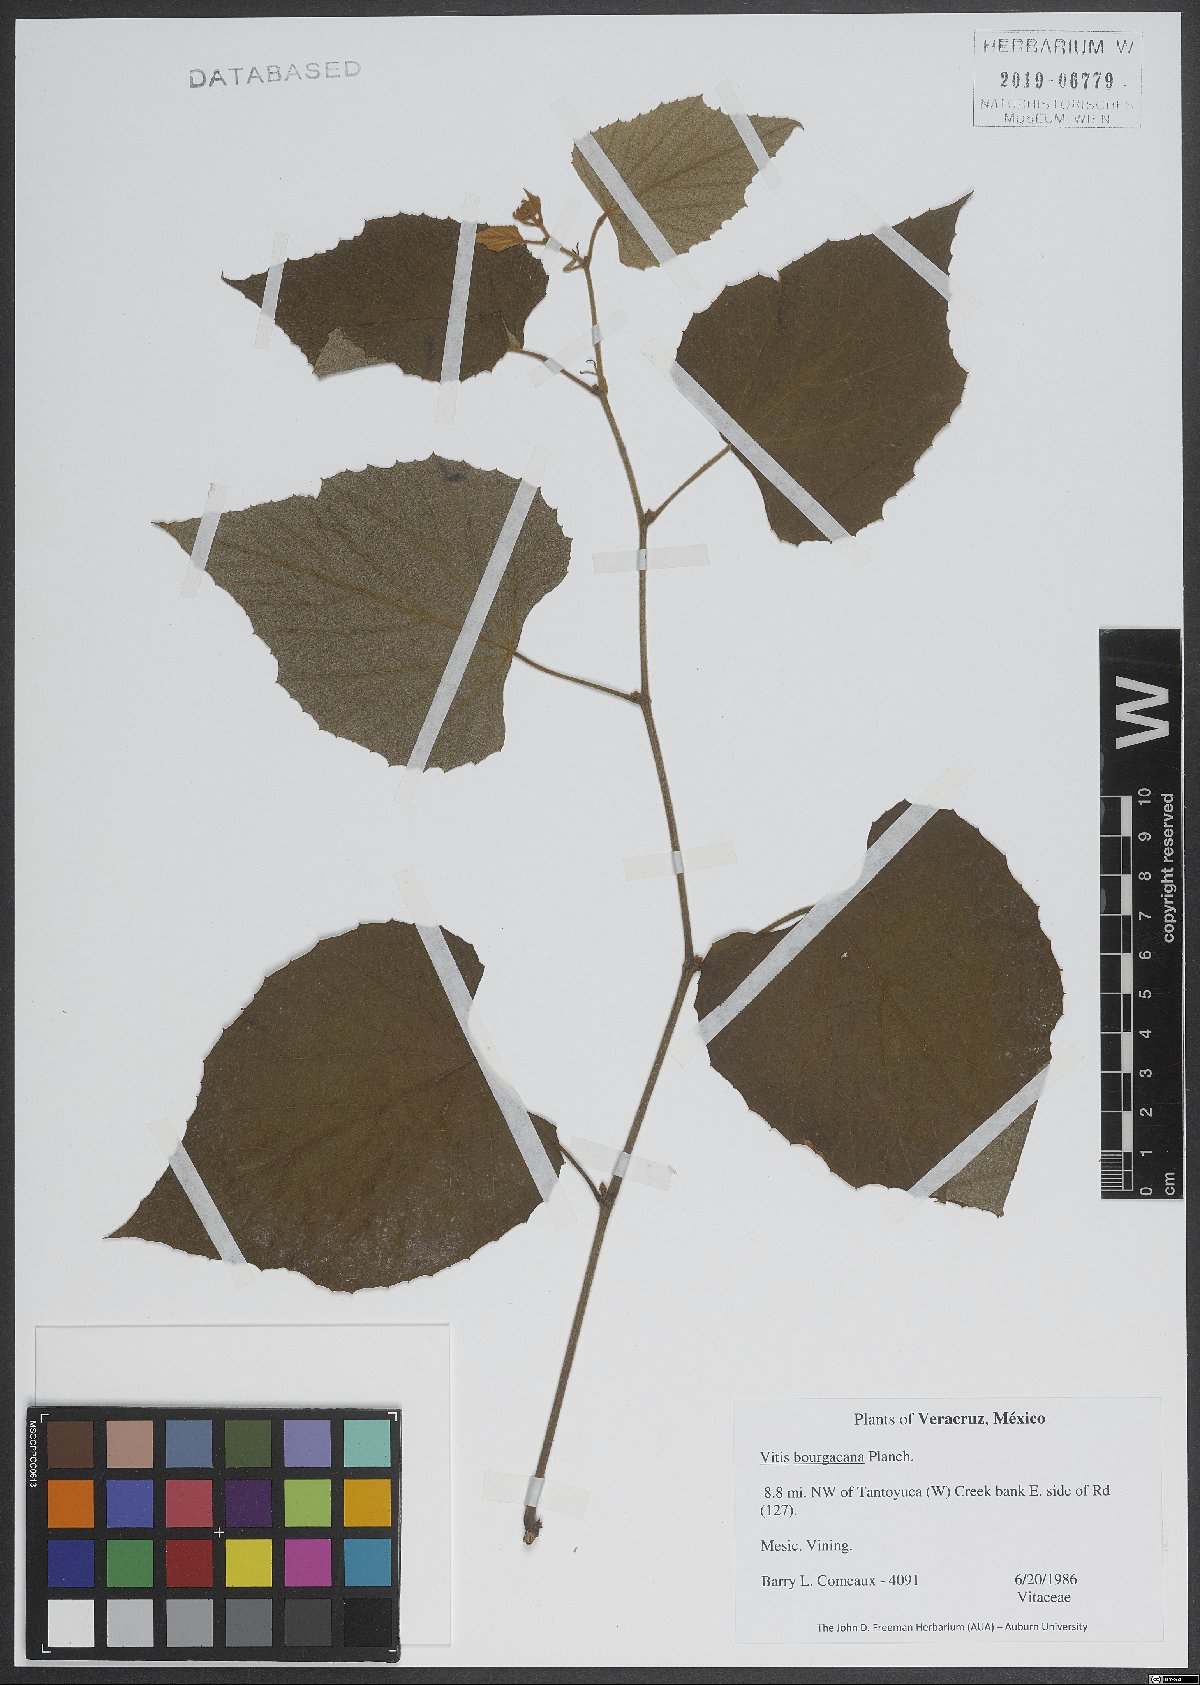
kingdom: Plantae
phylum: Tracheophyta
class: Magnoliopsida
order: Vitales
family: Vitaceae
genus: Vitis
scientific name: Vitis bourgaeana
